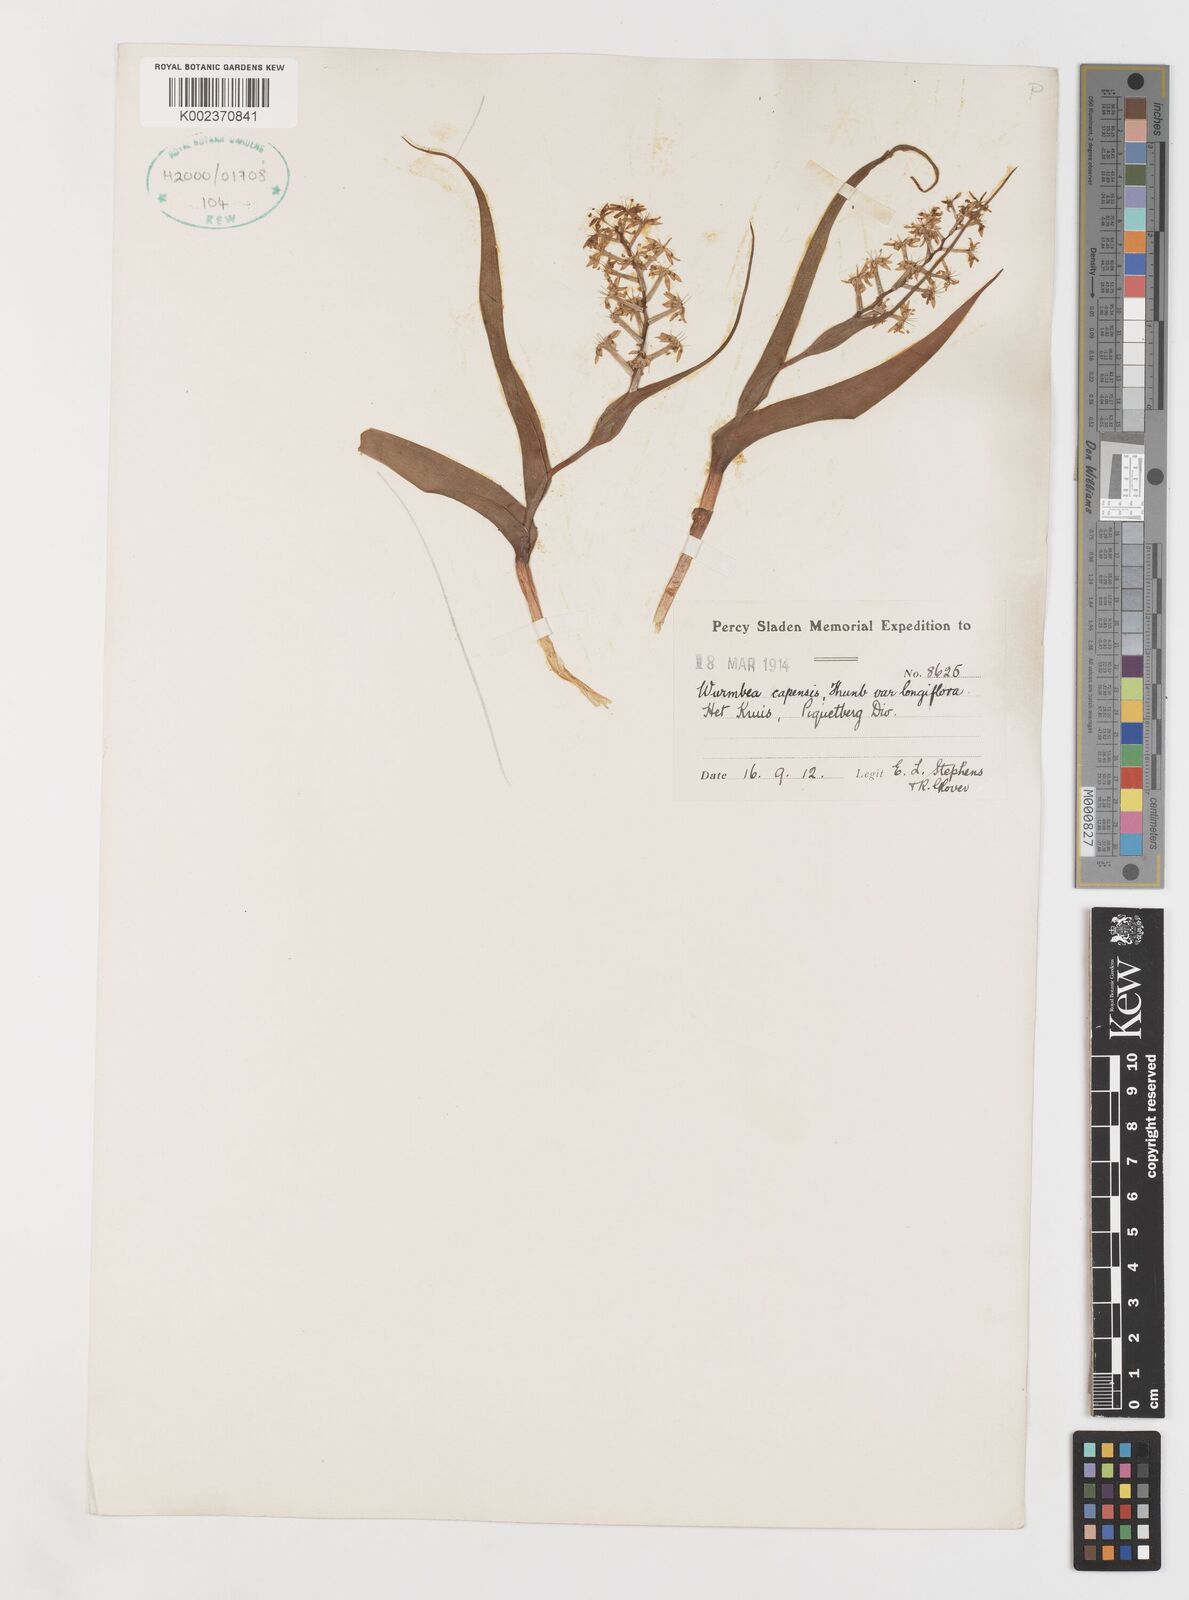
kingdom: Plantae
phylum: Tracheophyta
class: Liliopsida
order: Liliales
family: Colchicaceae
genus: Wurmbea
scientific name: Wurmbea capensis
